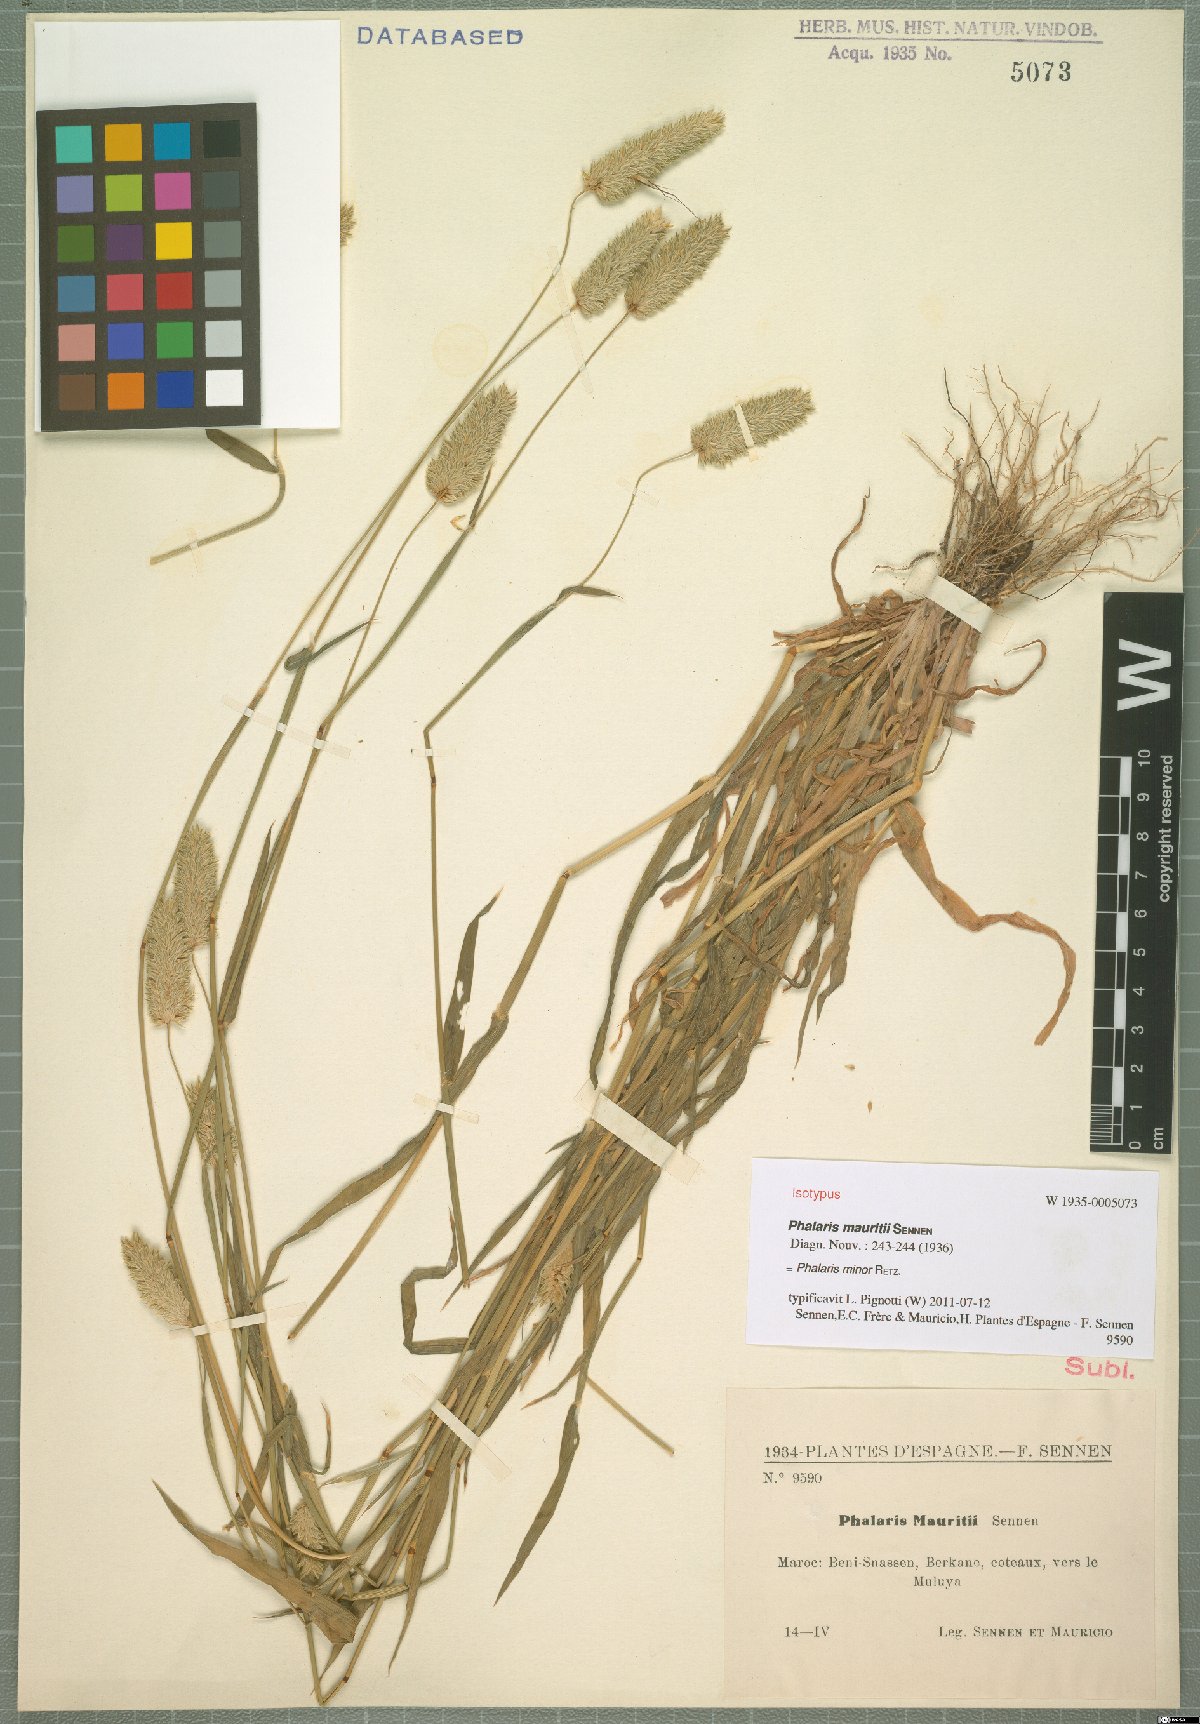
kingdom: Plantae
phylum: Tracheophyta
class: Liliopsida
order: Poales
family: Poaceae
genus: Phalaris
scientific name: Phalaris minor
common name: Littleseed canarygrass
